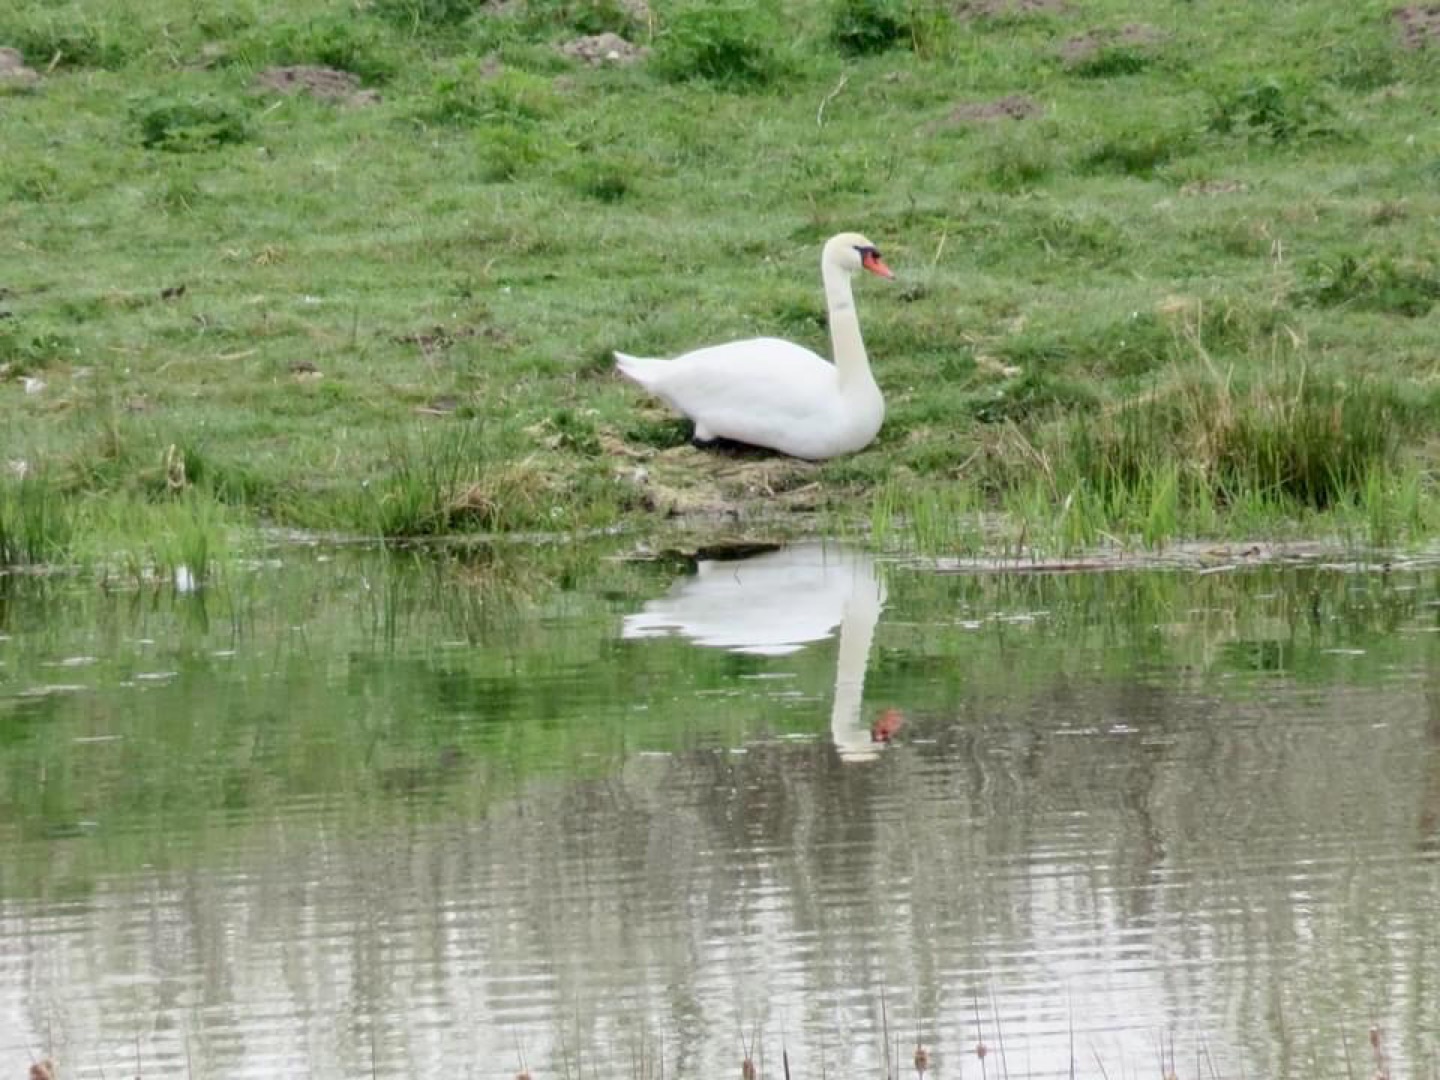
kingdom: Animalia
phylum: Chordata
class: Aves
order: Anseriformes
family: Anatidae
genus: Cygnus
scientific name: Cygnus olor
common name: Knopsvane
